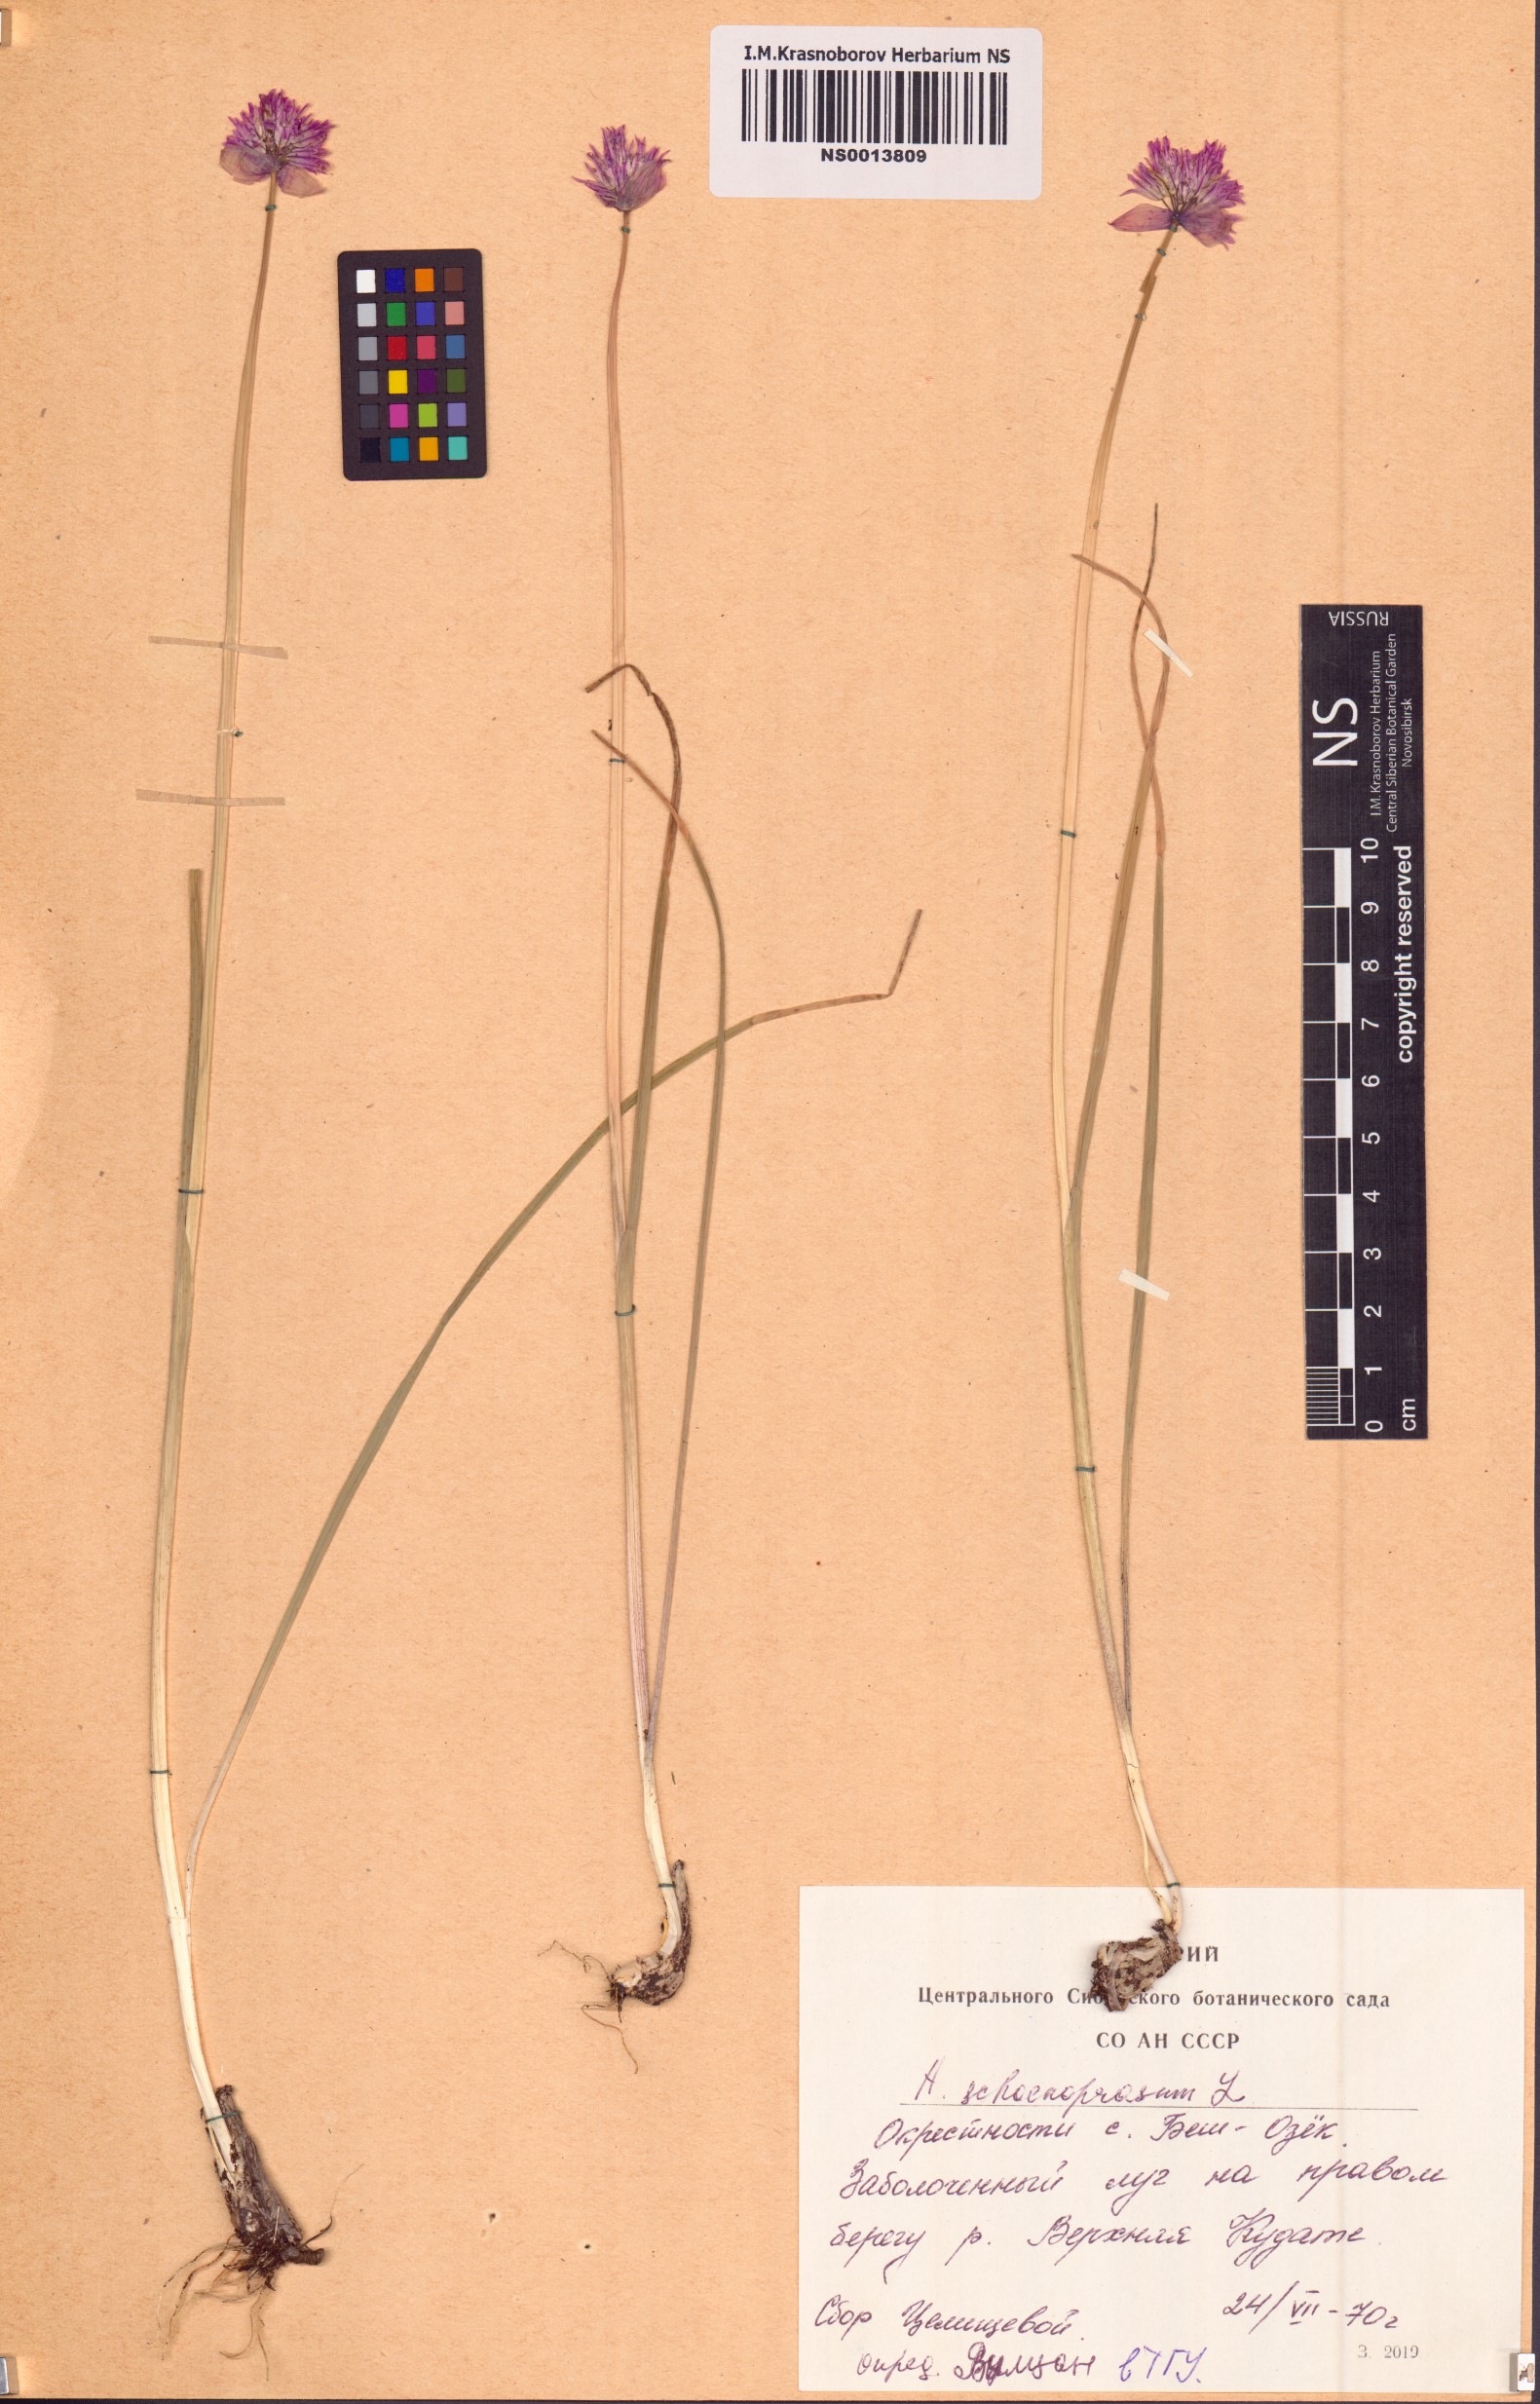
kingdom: Plantae
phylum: Tracheophyta
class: Liliopsida
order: Asparagales
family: Amaryllidaceae
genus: Allium
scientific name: Allium schoenoprasum
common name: Chives
